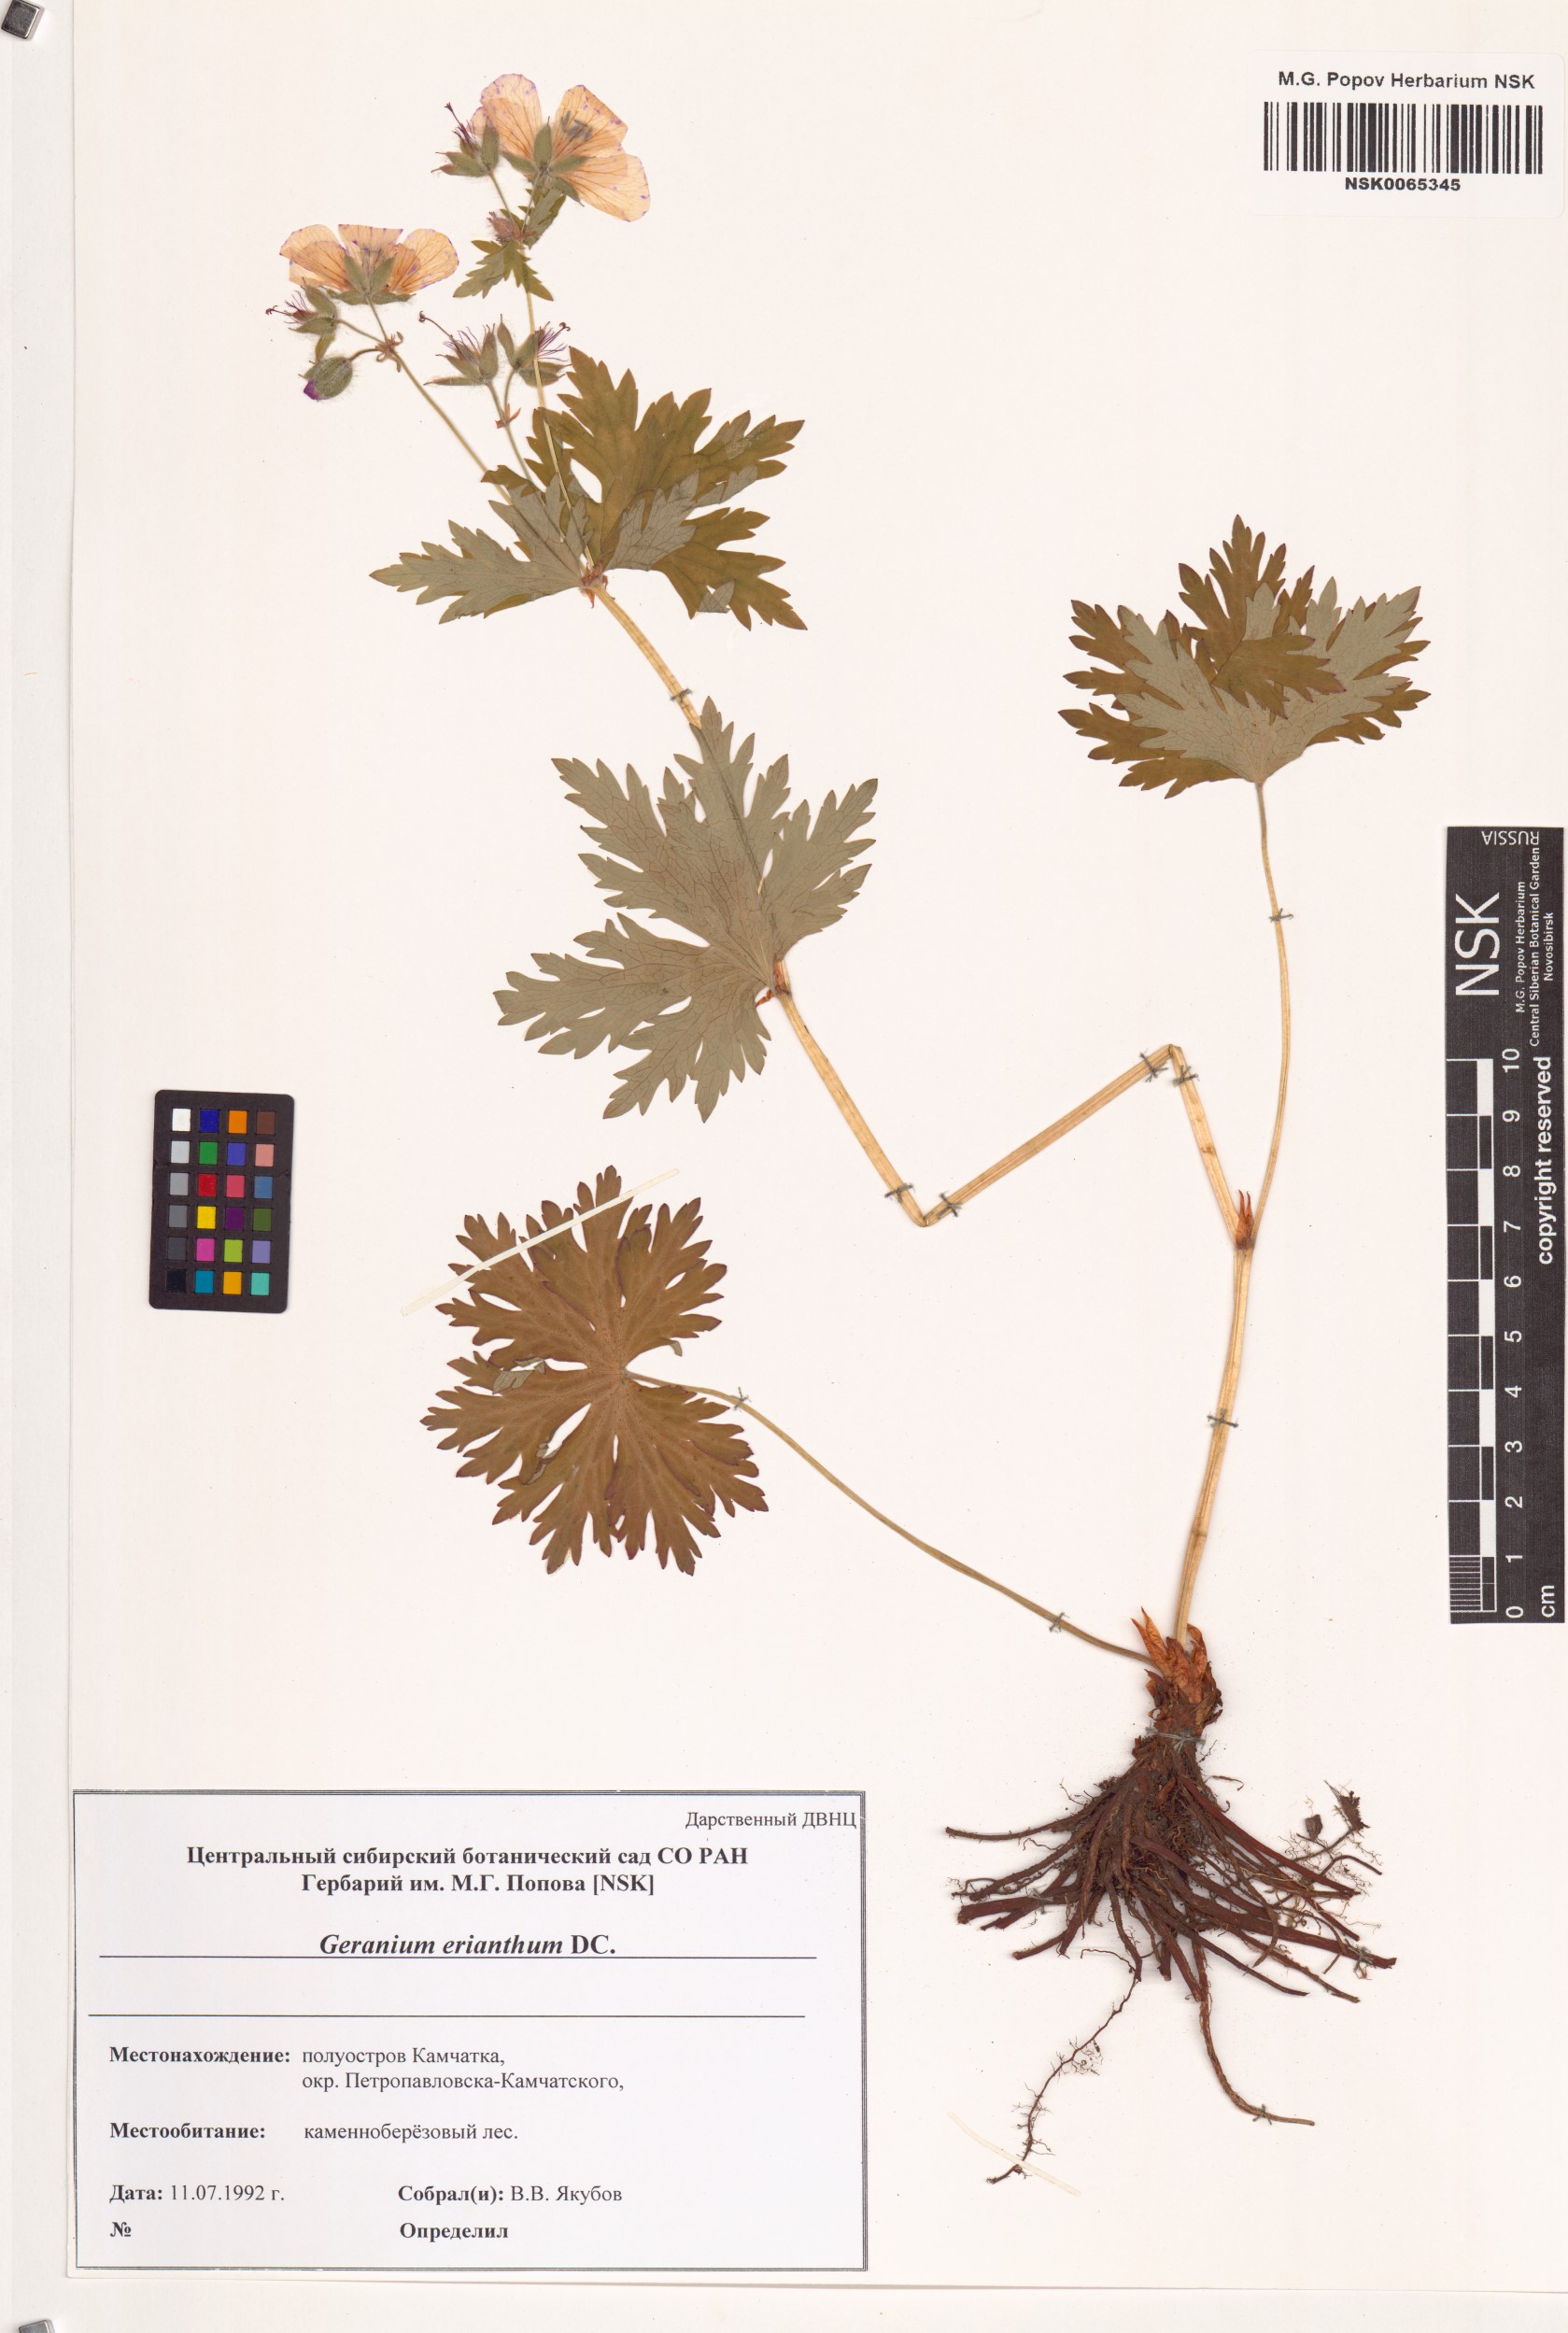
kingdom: Plantae
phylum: Tracheophyta
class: Magnoliopsida
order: Geraniales
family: Geraniaceae
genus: Geranium
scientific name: Geranium erianthum
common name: Northern crane's-bill
